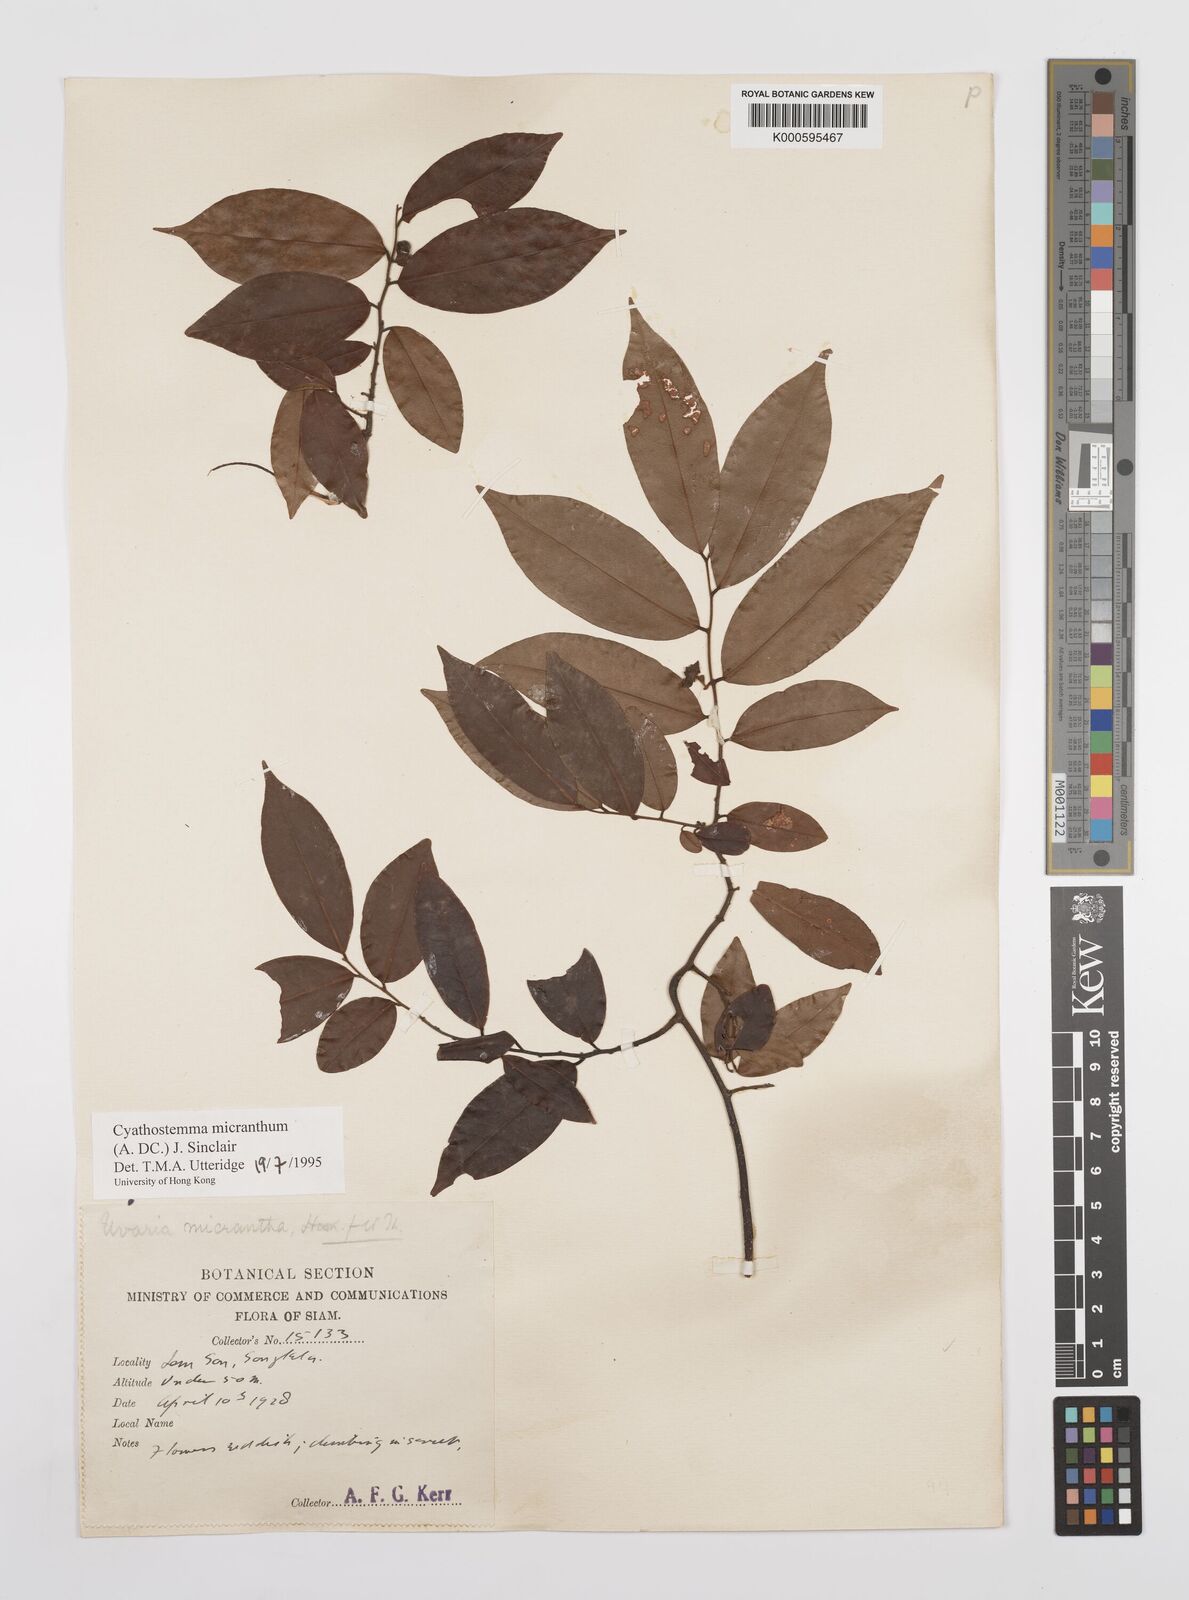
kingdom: Plantae
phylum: Tracheophyta
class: Magnoliopsida
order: Magnoliales
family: Annonaceae
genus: Uvaria
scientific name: Uvaria micrantha
